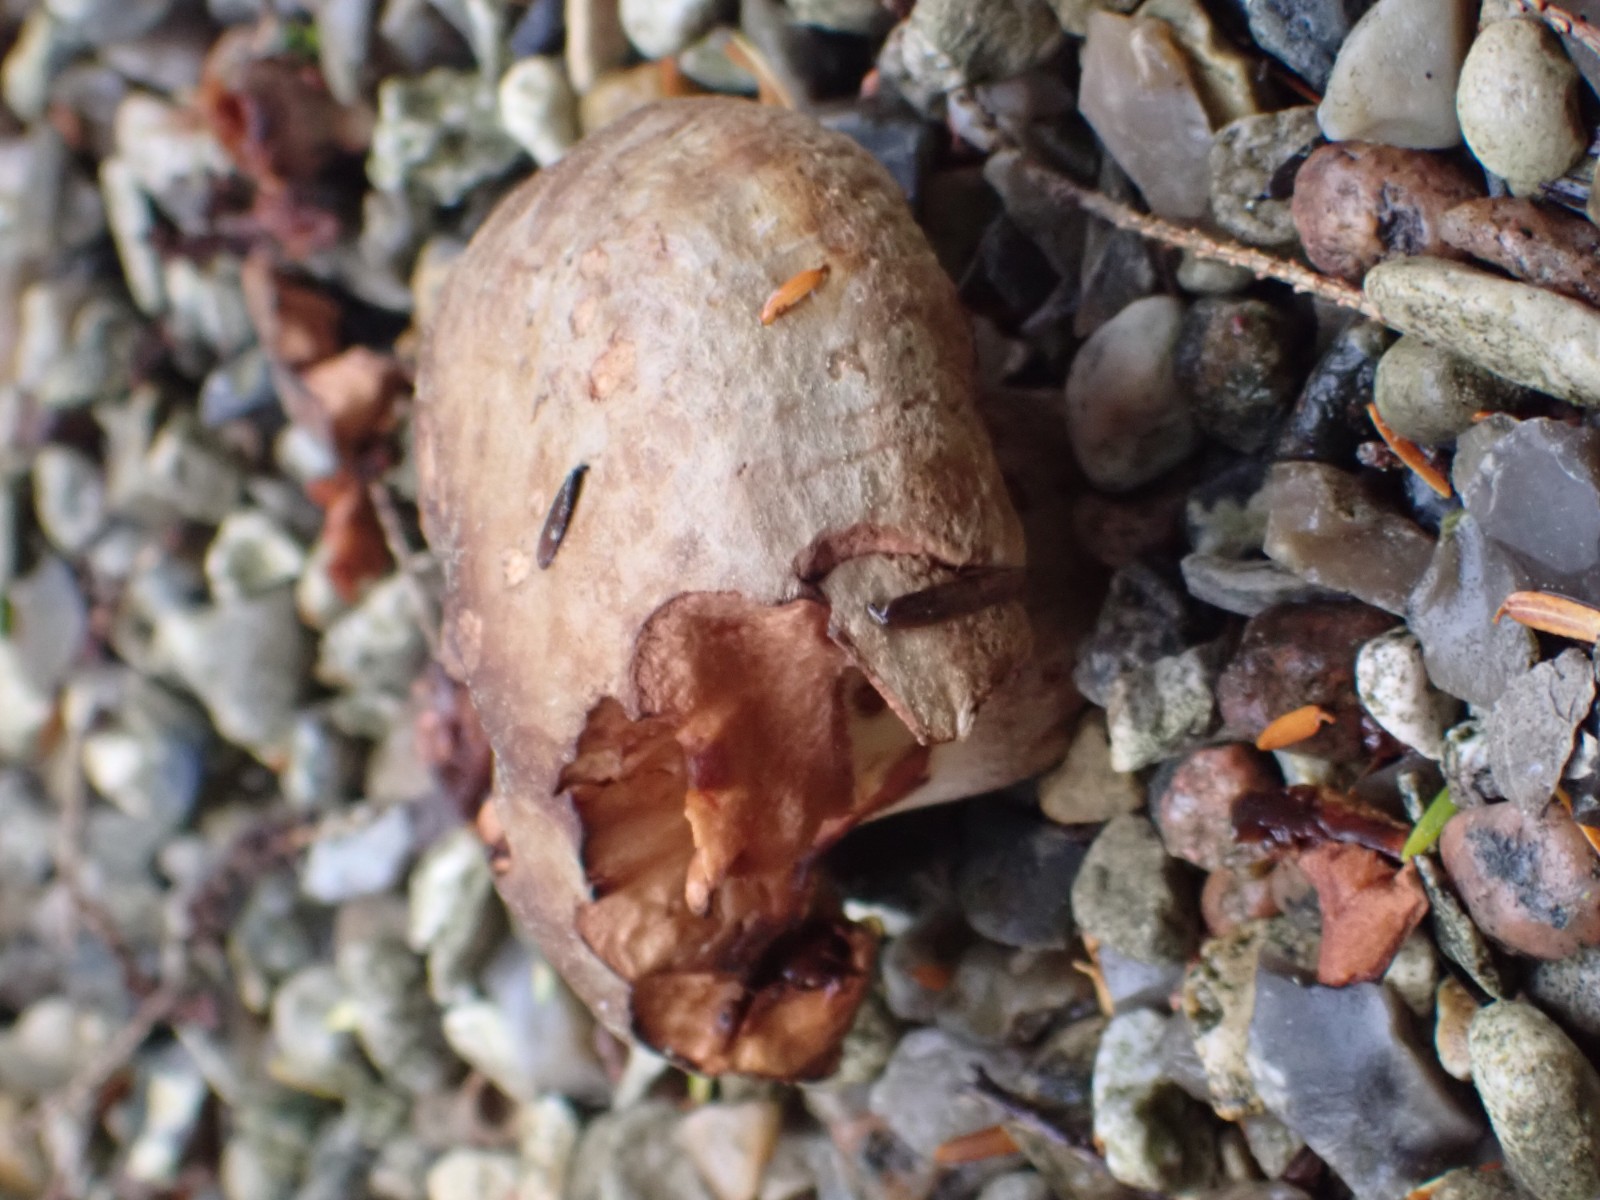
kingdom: Fungi
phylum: Basidiomycota
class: Agaricomycetes
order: Boletales
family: Paxillaceae
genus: Paxillus
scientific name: Paxillus
